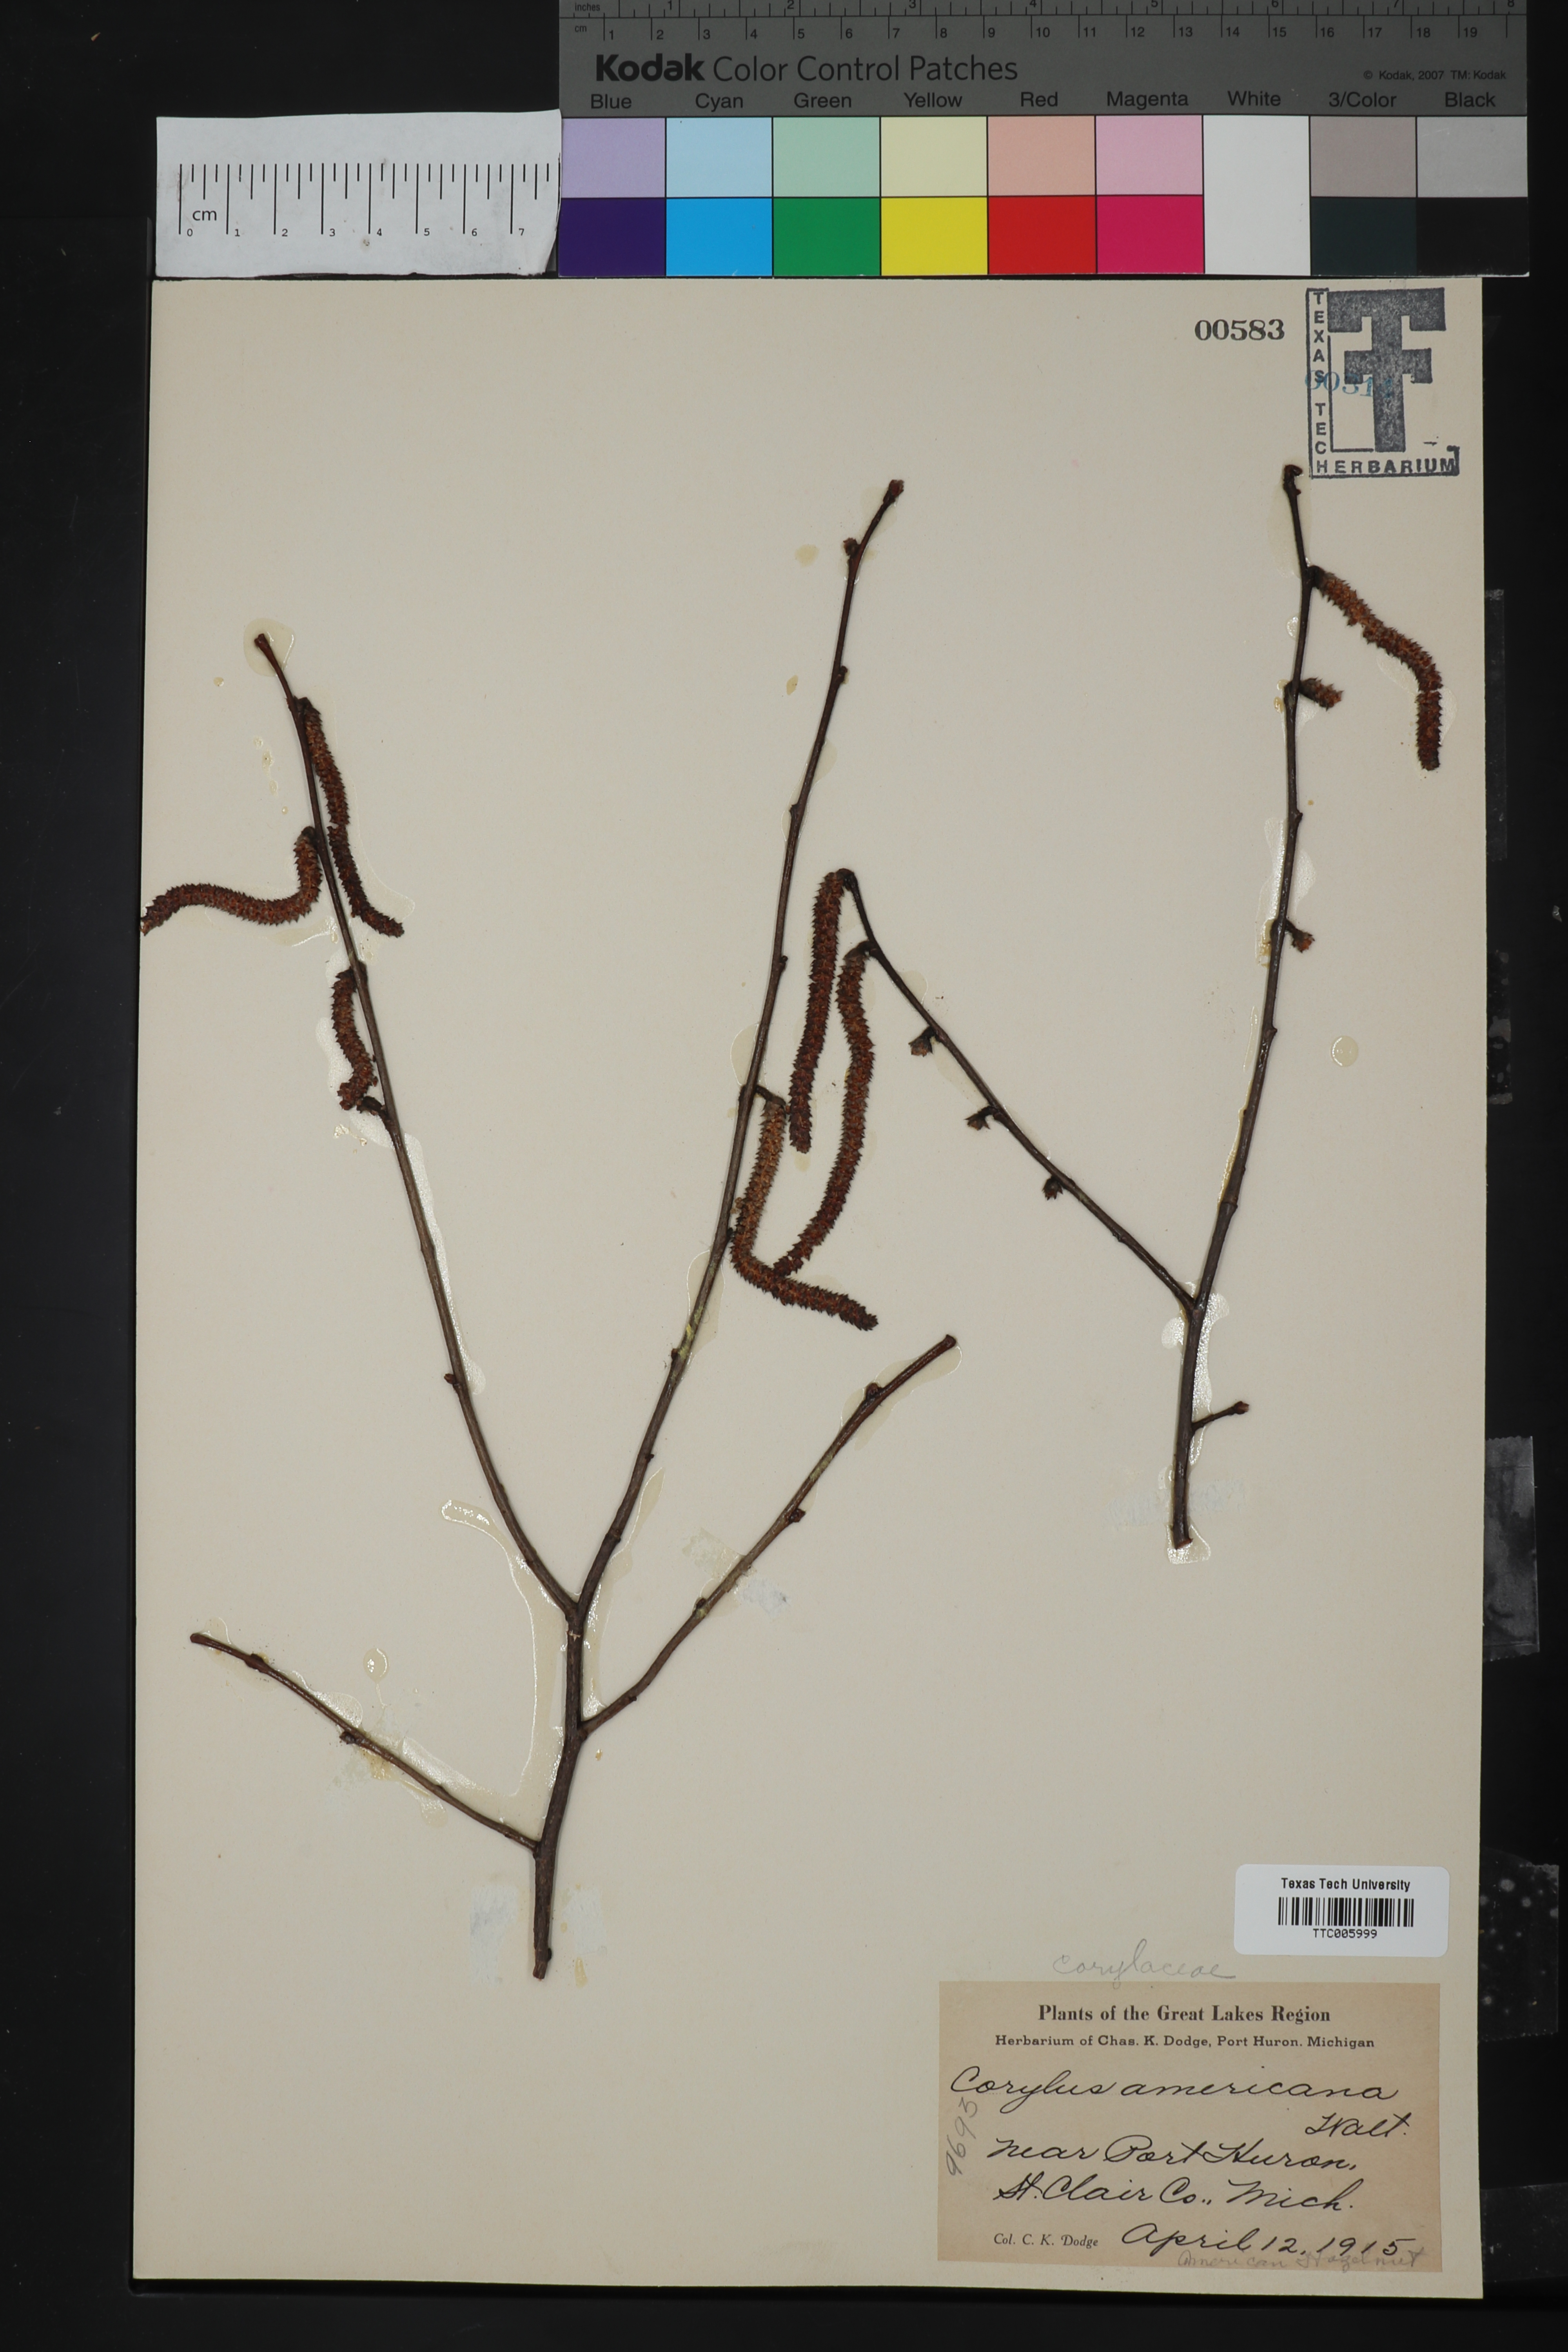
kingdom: Plantae
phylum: Tracheophyta
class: Magnoliopsida
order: Fagales
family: Betulaceae
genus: Corylus
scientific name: Corylus americana
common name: American hazel
